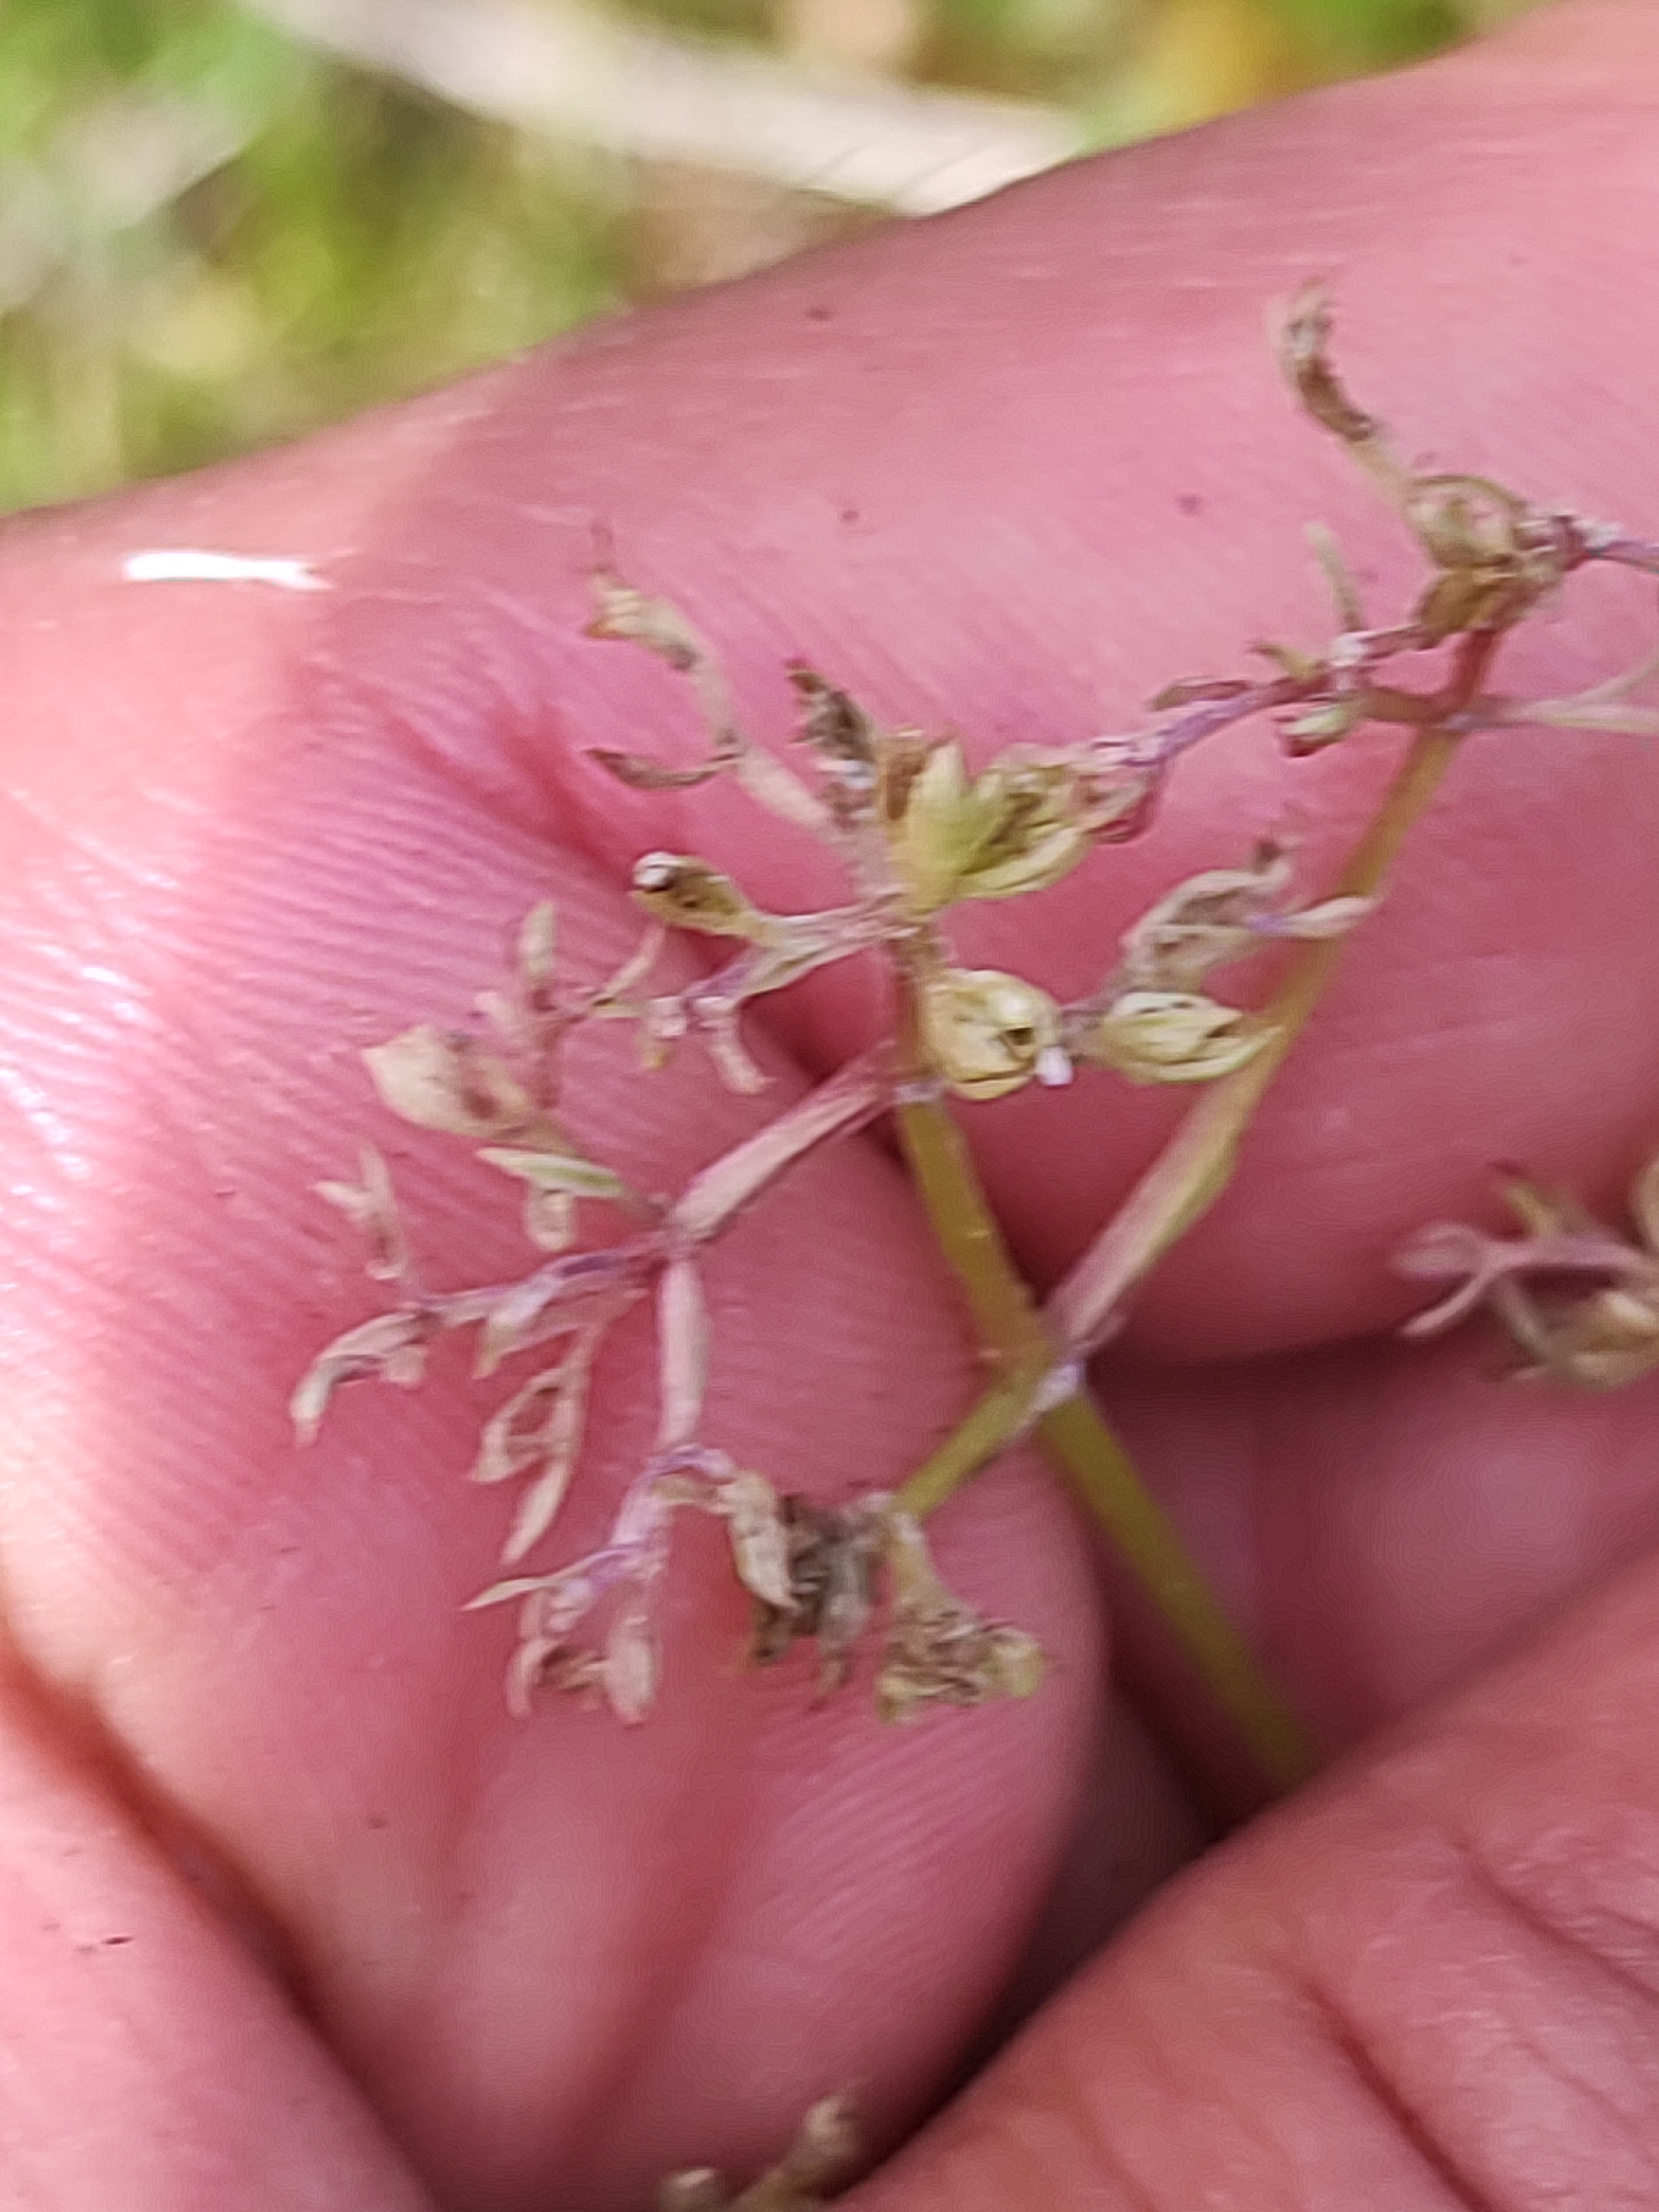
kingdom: Plantae
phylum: Tracheophyta
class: Magnoliopsida
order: Dipsacales
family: Caprifoliaceae
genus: Valeriana
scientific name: Valeriana dioica
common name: Tvebo baldrian
